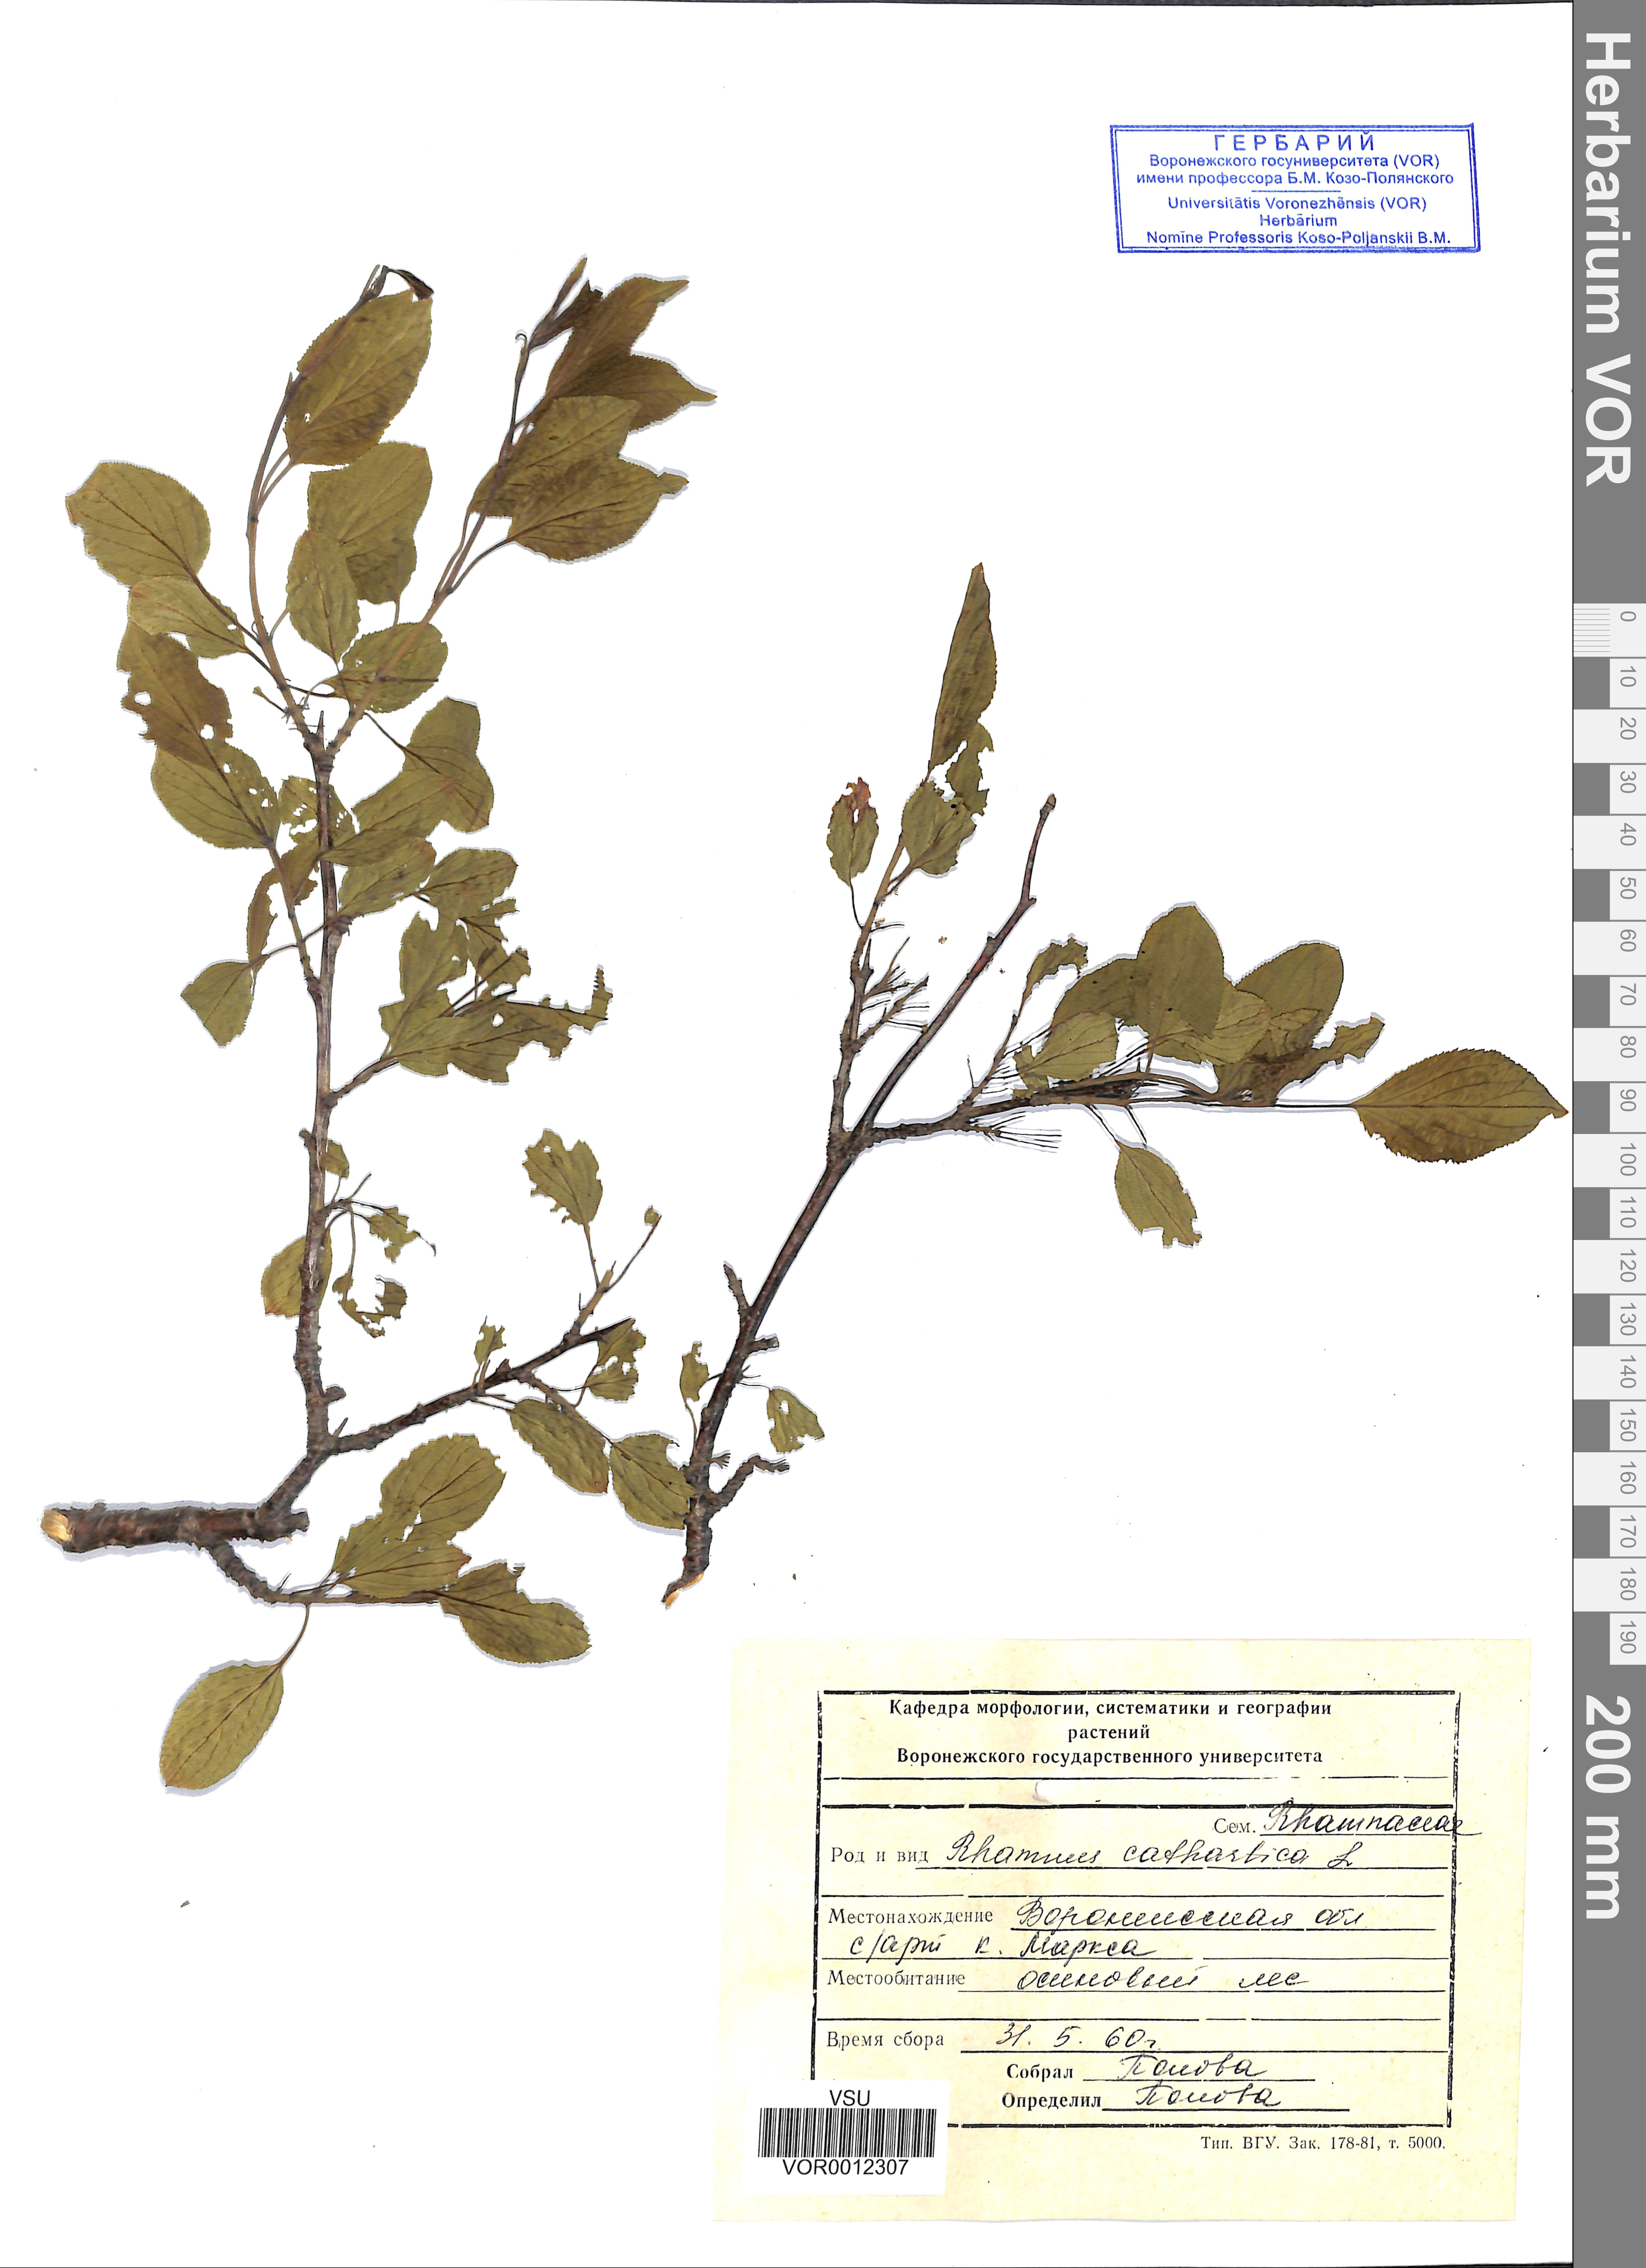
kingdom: Plantae
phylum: Tracheophyta
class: Magnoliopsida
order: Rosales
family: Rhamnaceae
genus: Rhamnus
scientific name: Rhamnus cathartica
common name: Common buckthorn
